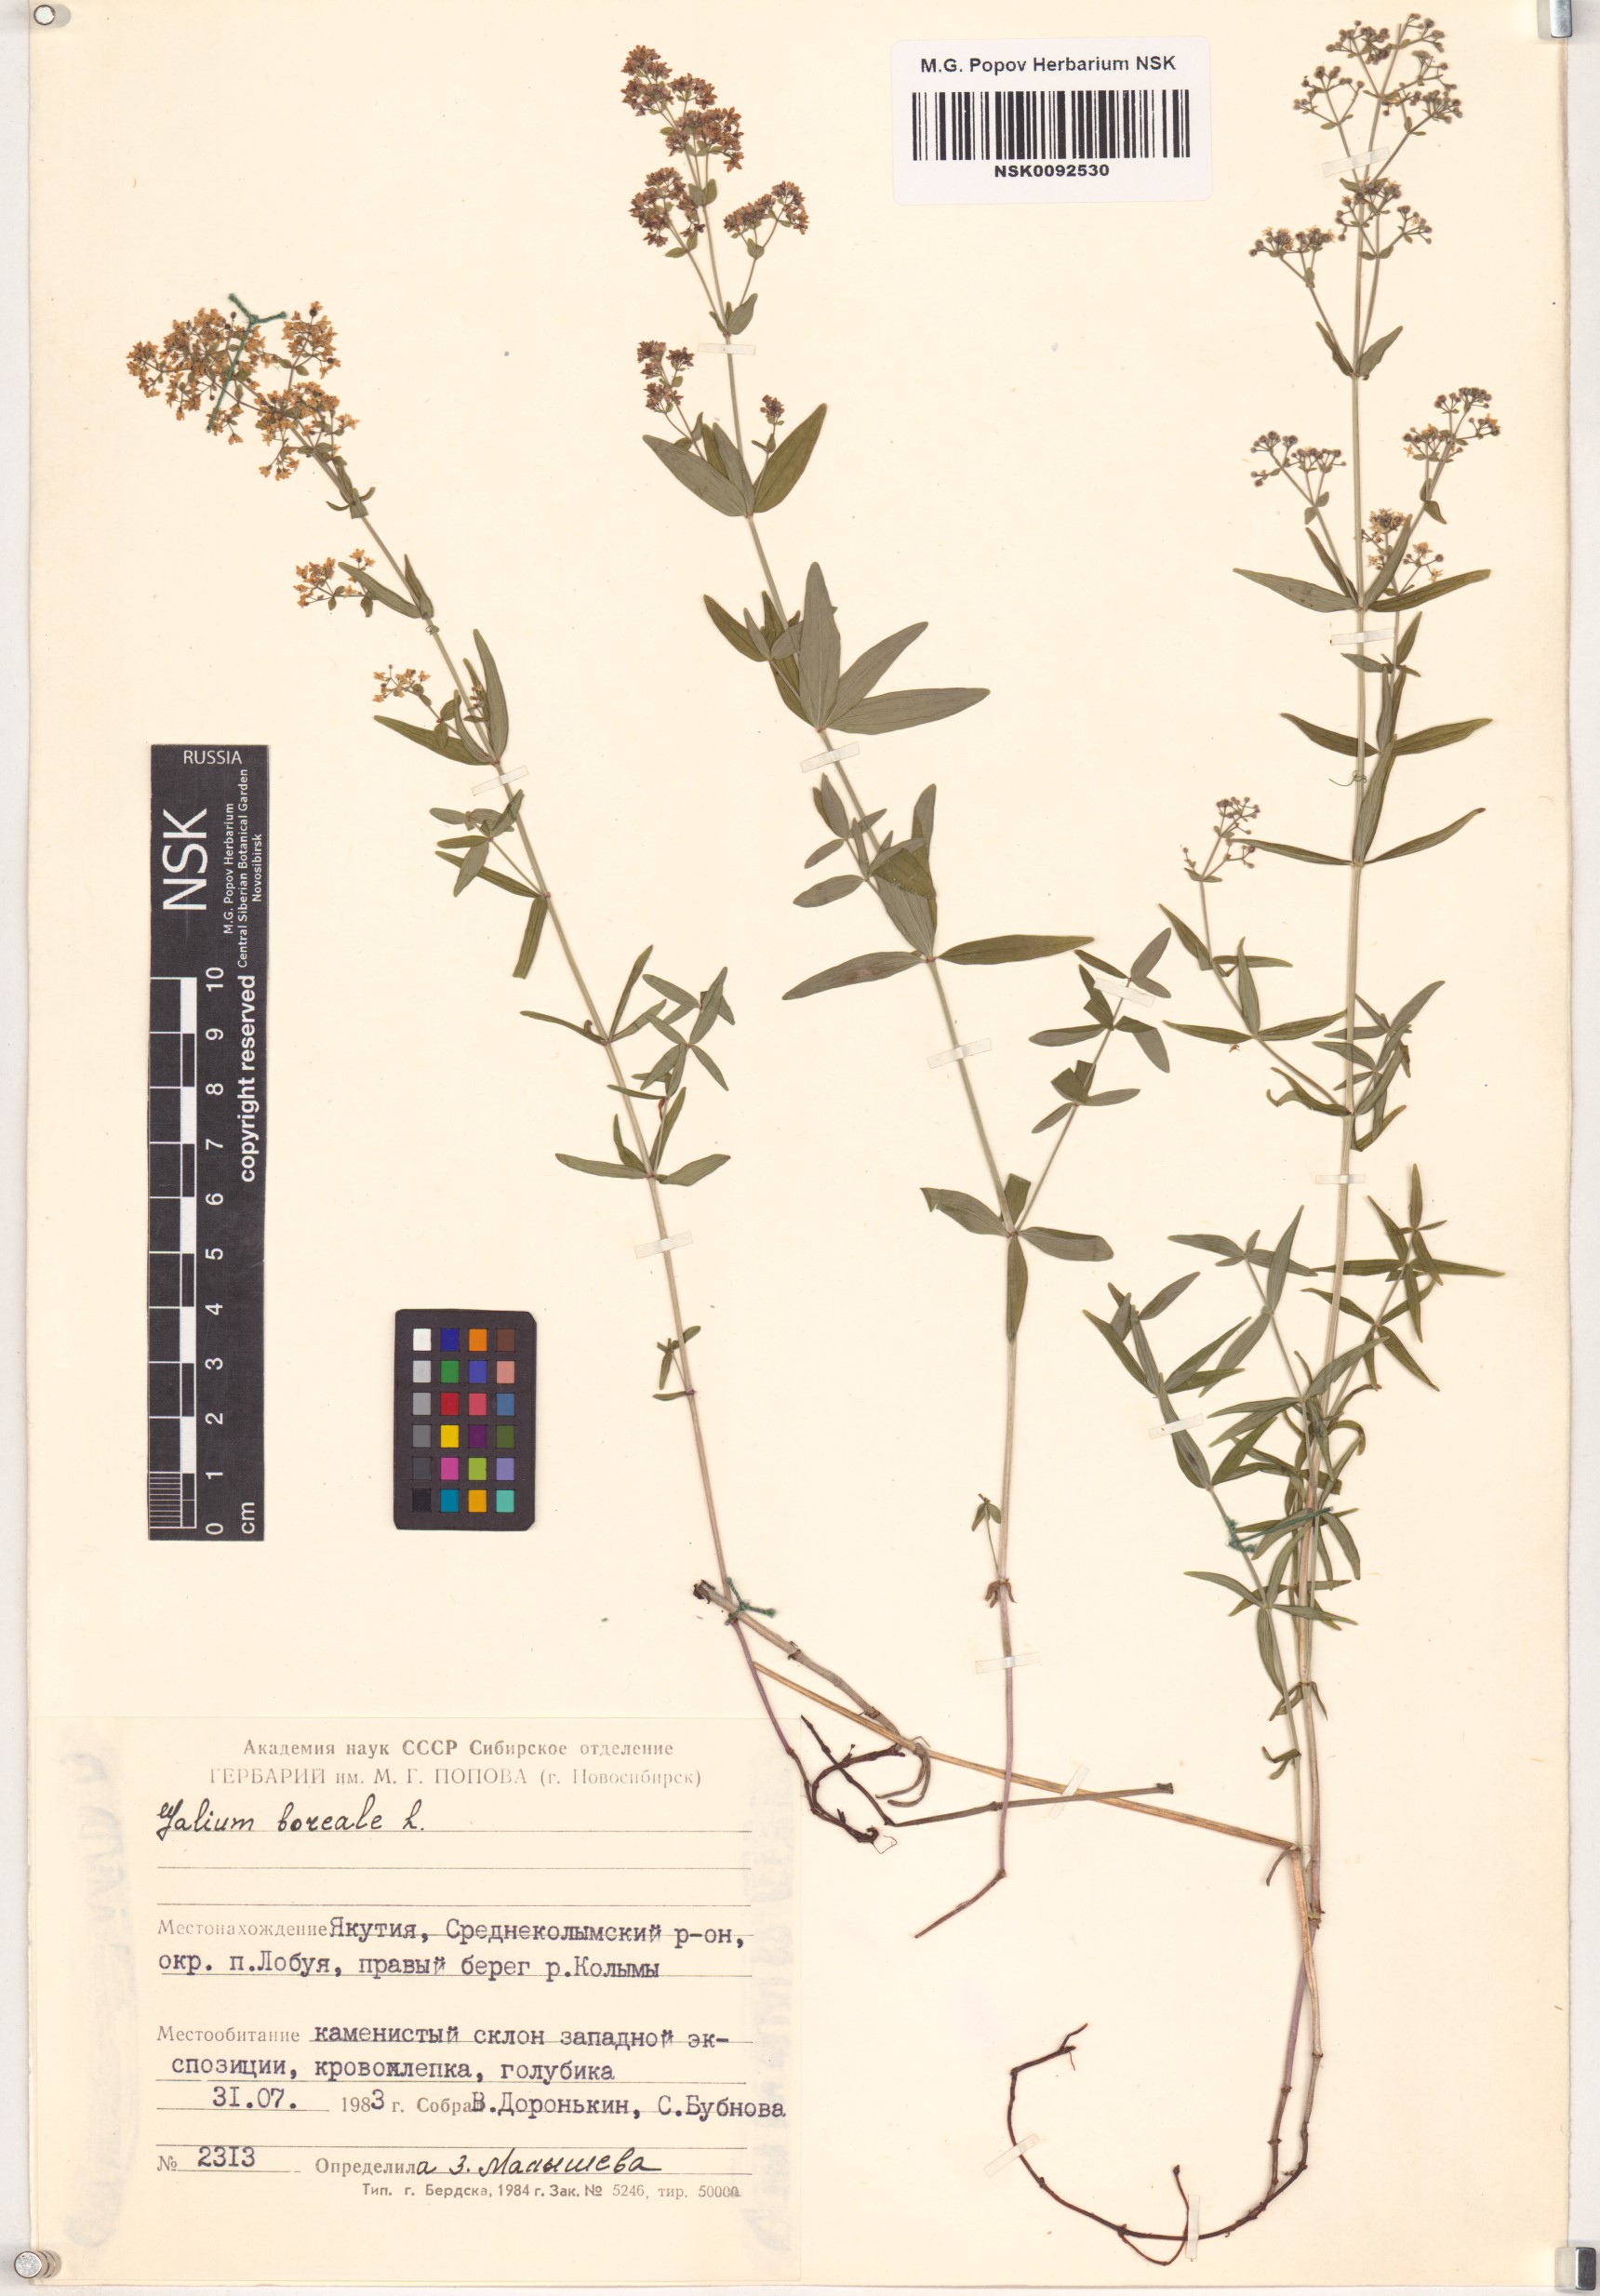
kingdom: Plantae
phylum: Tracheophyta
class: Magnoliopsida
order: Gentianales
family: Rubiaceae
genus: Galium
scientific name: Galium boreale
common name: Northern bedstraw
